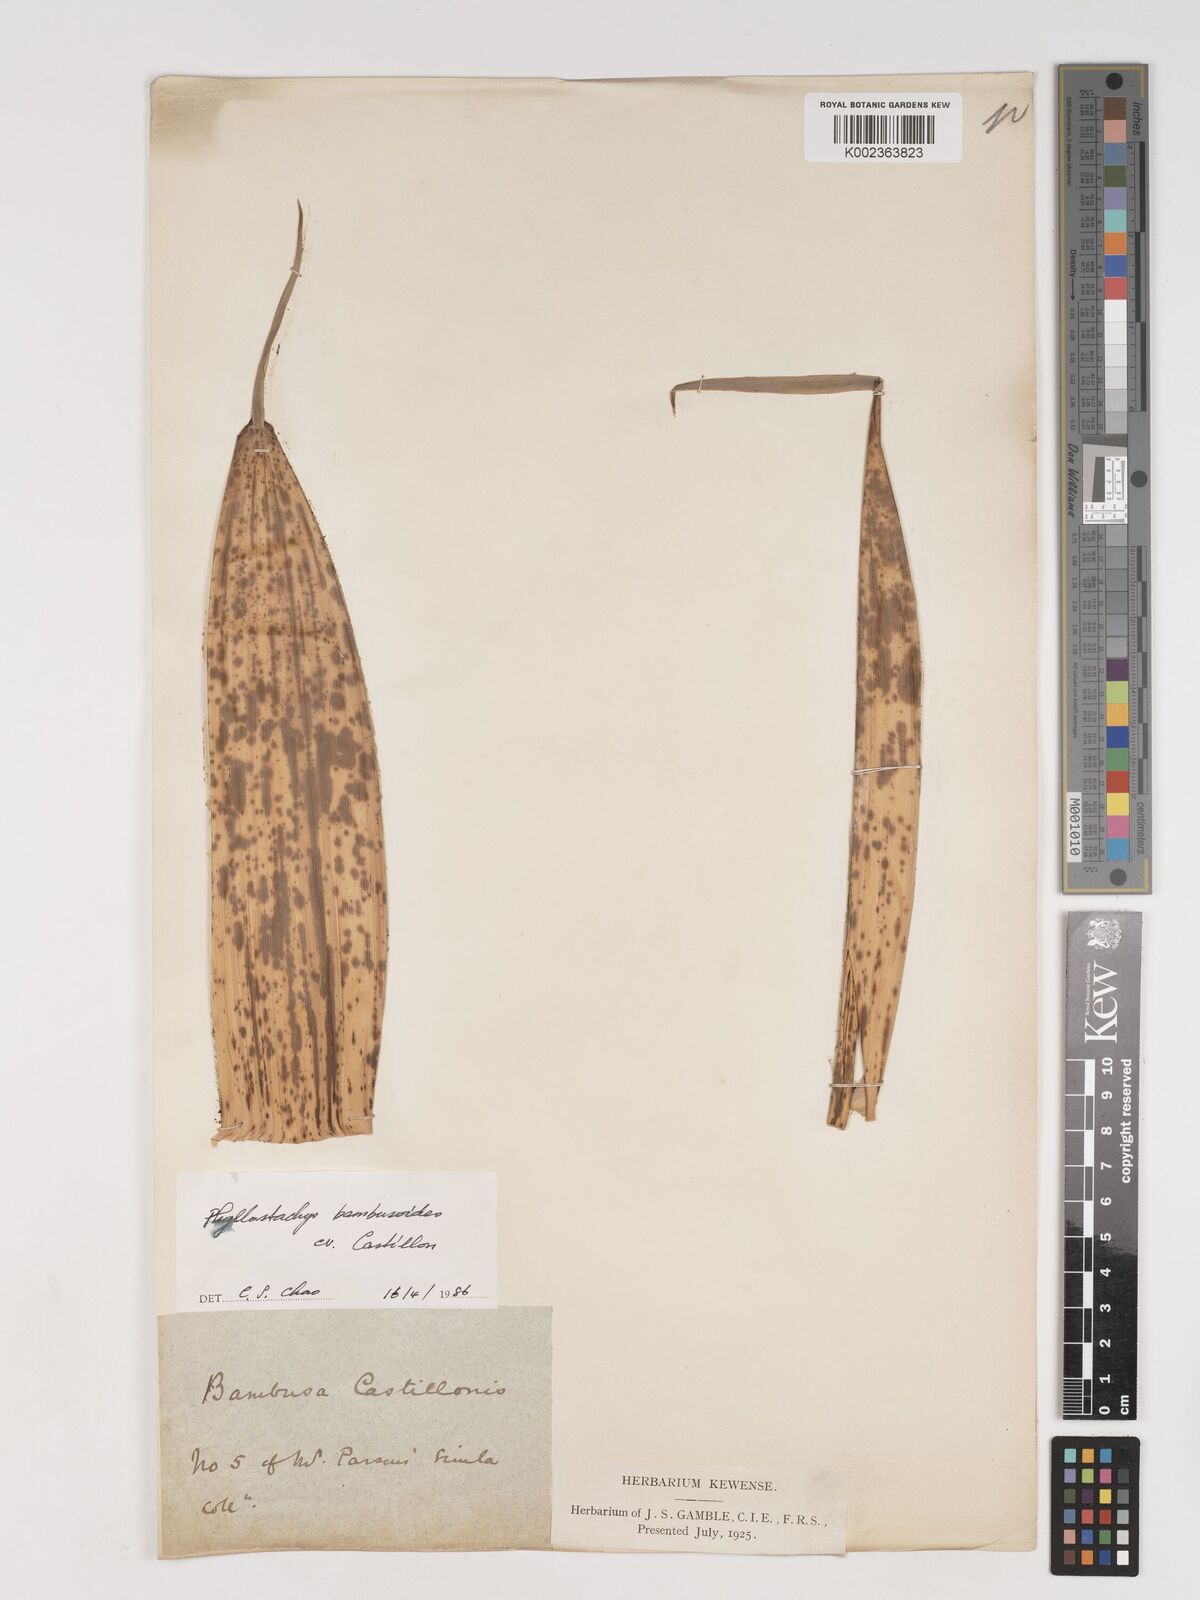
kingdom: Plantae
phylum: Tracheophyta
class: Liliopsida
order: Poales
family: Poaceae
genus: Phyllostachys
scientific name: Phyllostachys reticulata
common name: Bamboo
